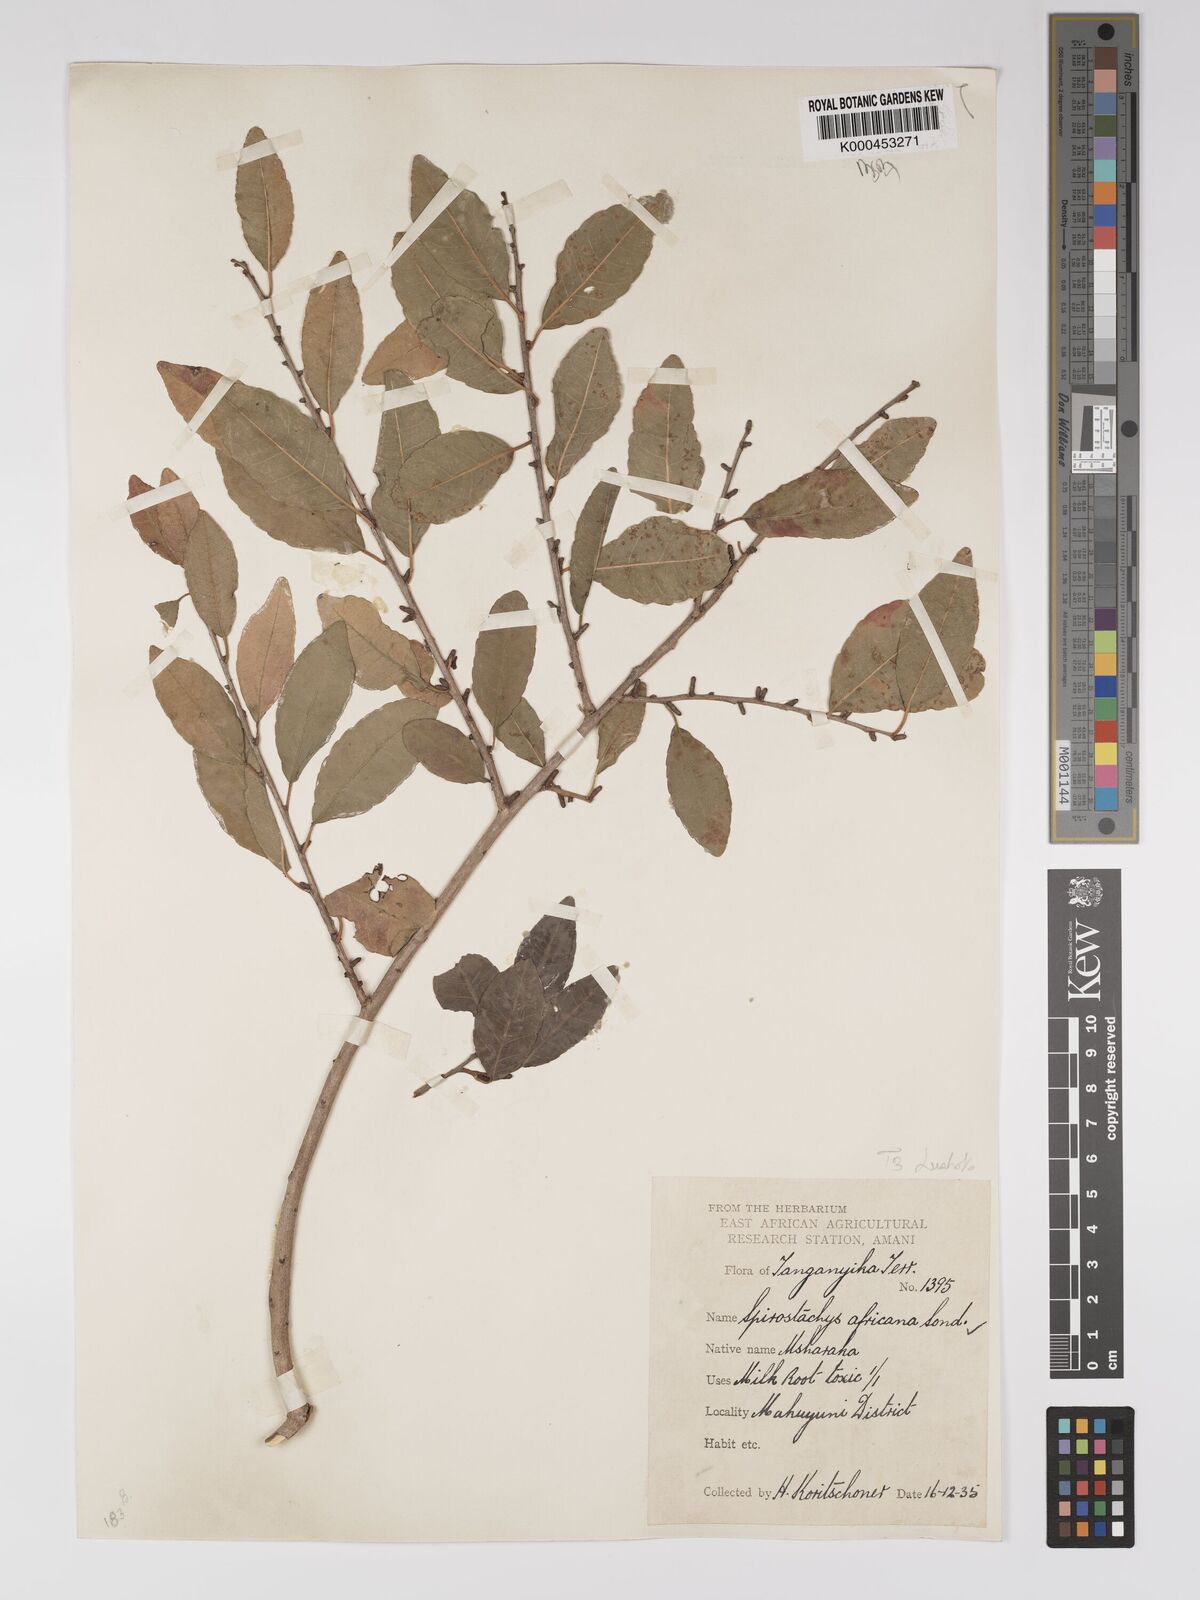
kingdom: Plantae
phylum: Tracheophyta
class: Magnoliopsida
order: Malpighiales
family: Euphorbiaceae
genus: Spirostachys
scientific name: Spirostachys africana
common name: Tamboti
